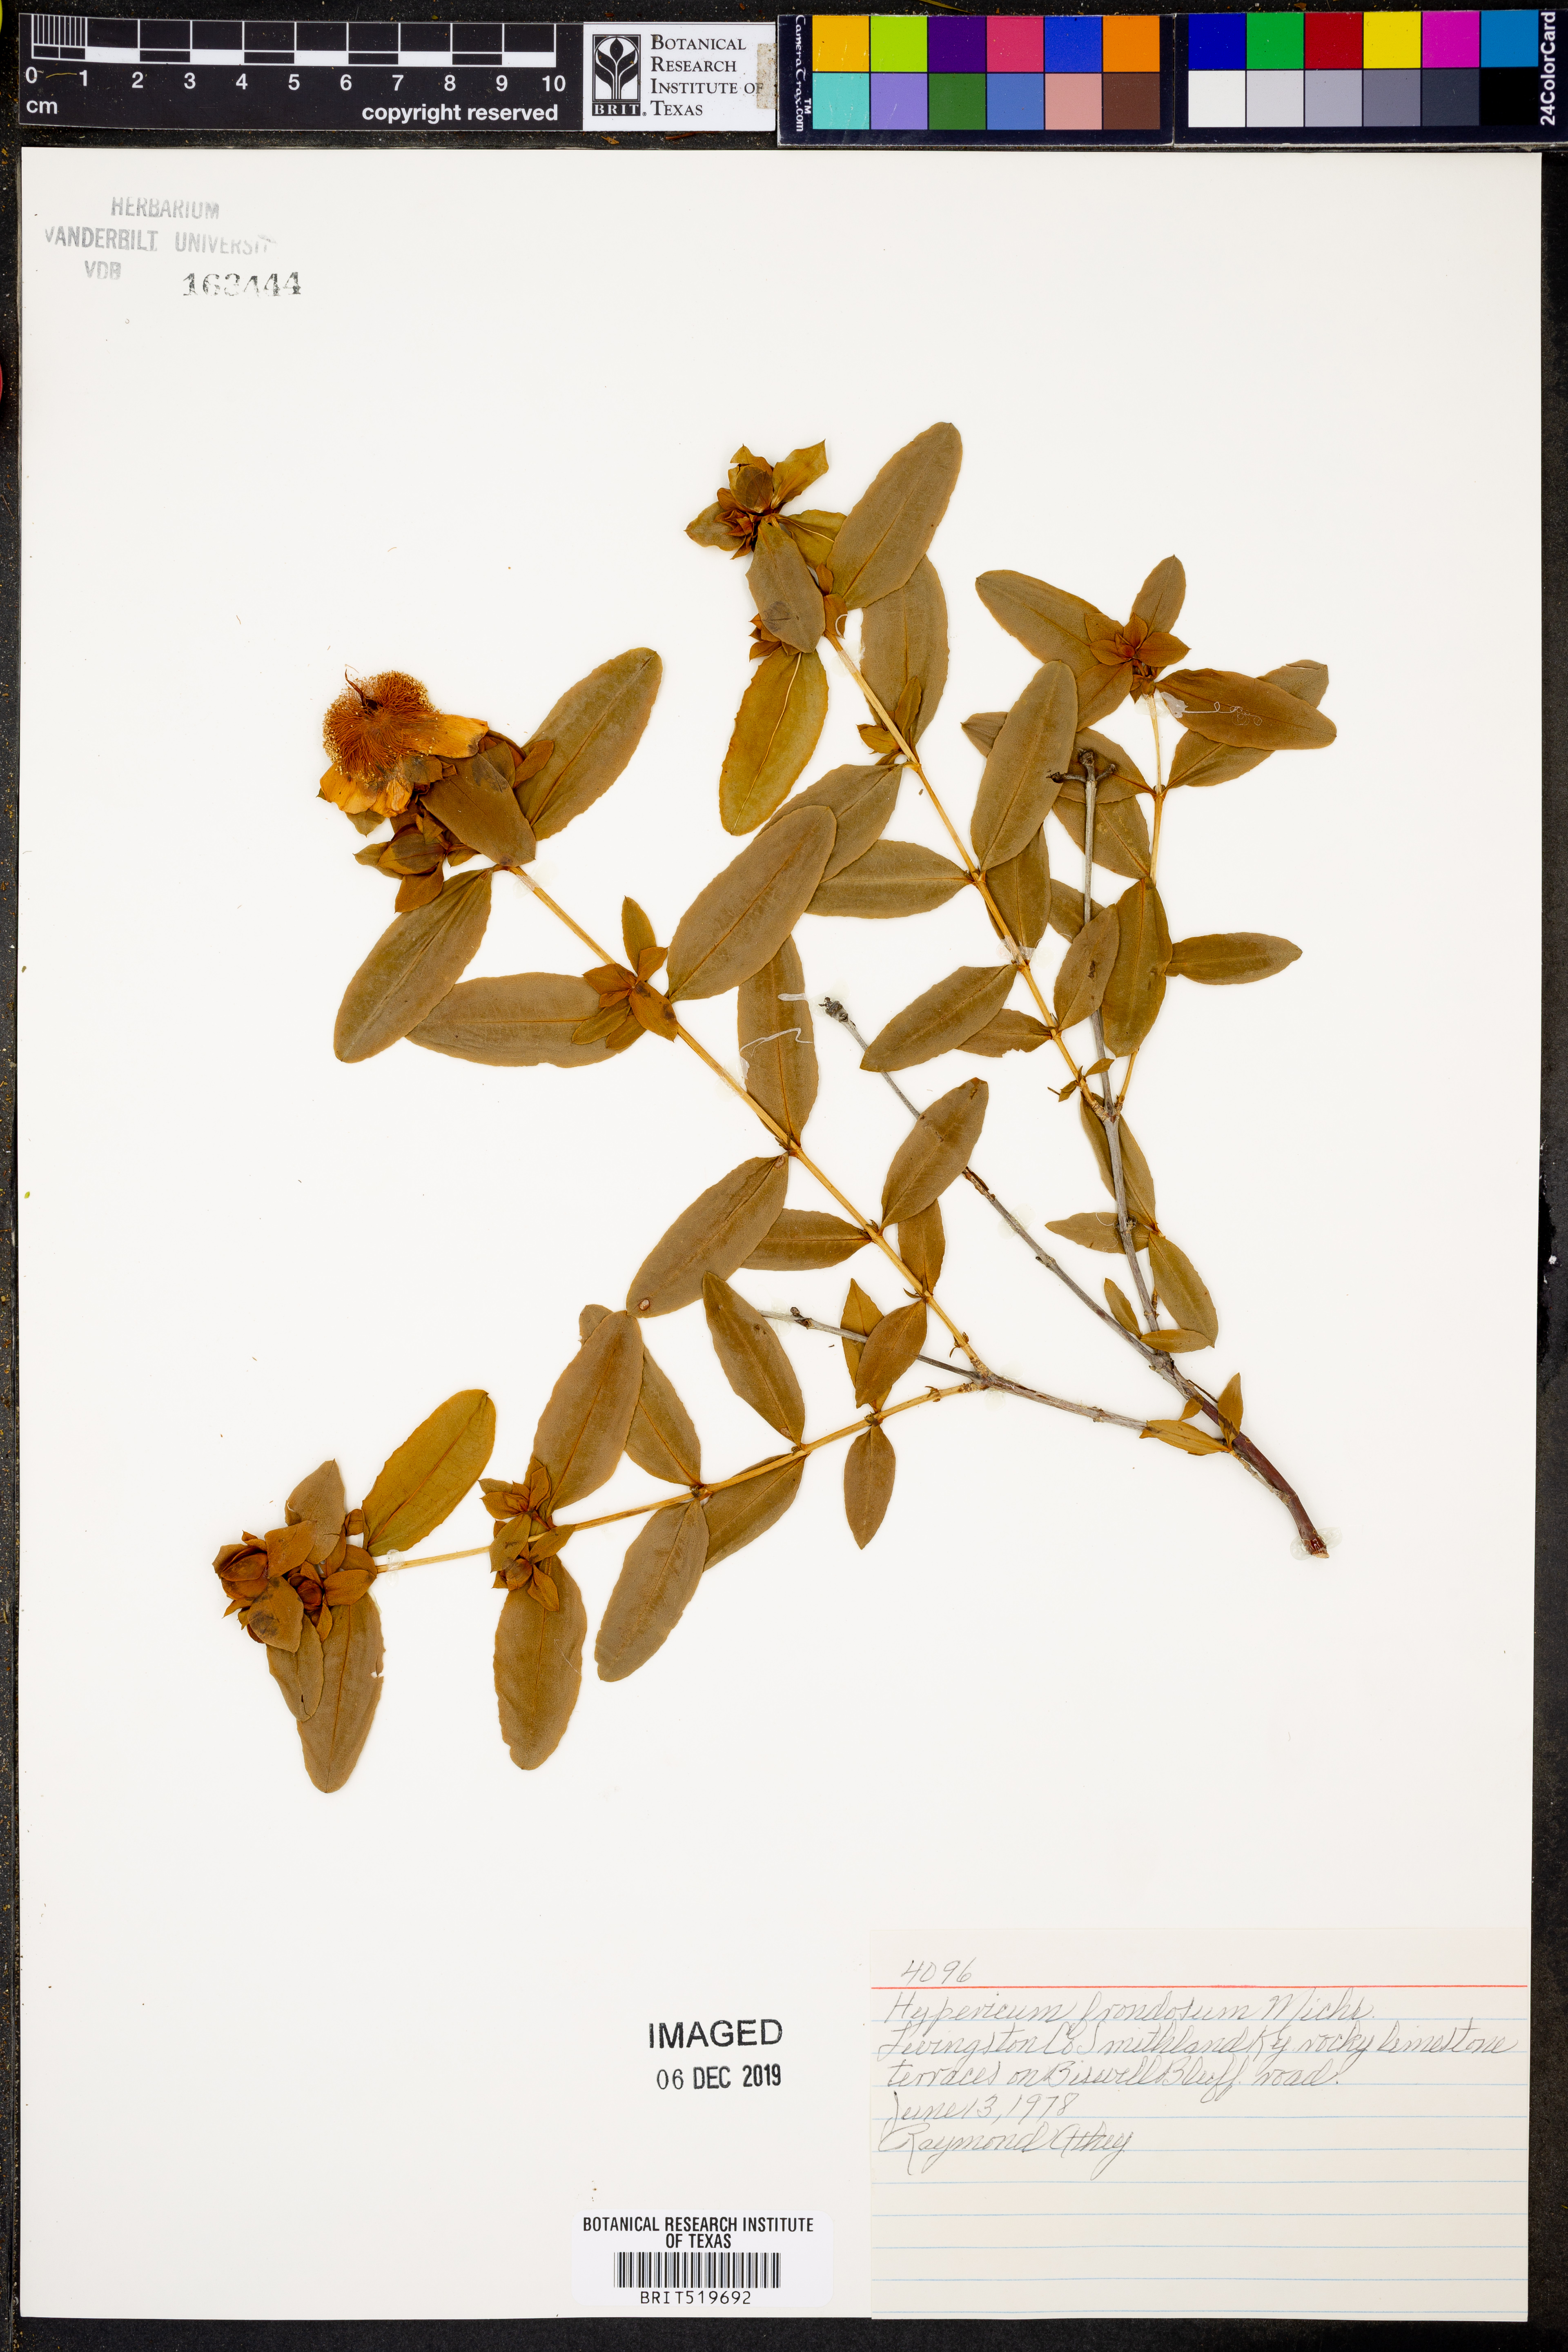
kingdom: Plantae
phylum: Tracheophyta
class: Magnoliopsida
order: Malpighiales
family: Hypericaceae
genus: Hypericum
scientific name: Hypericum frondosum
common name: Golden st. john's-wort
